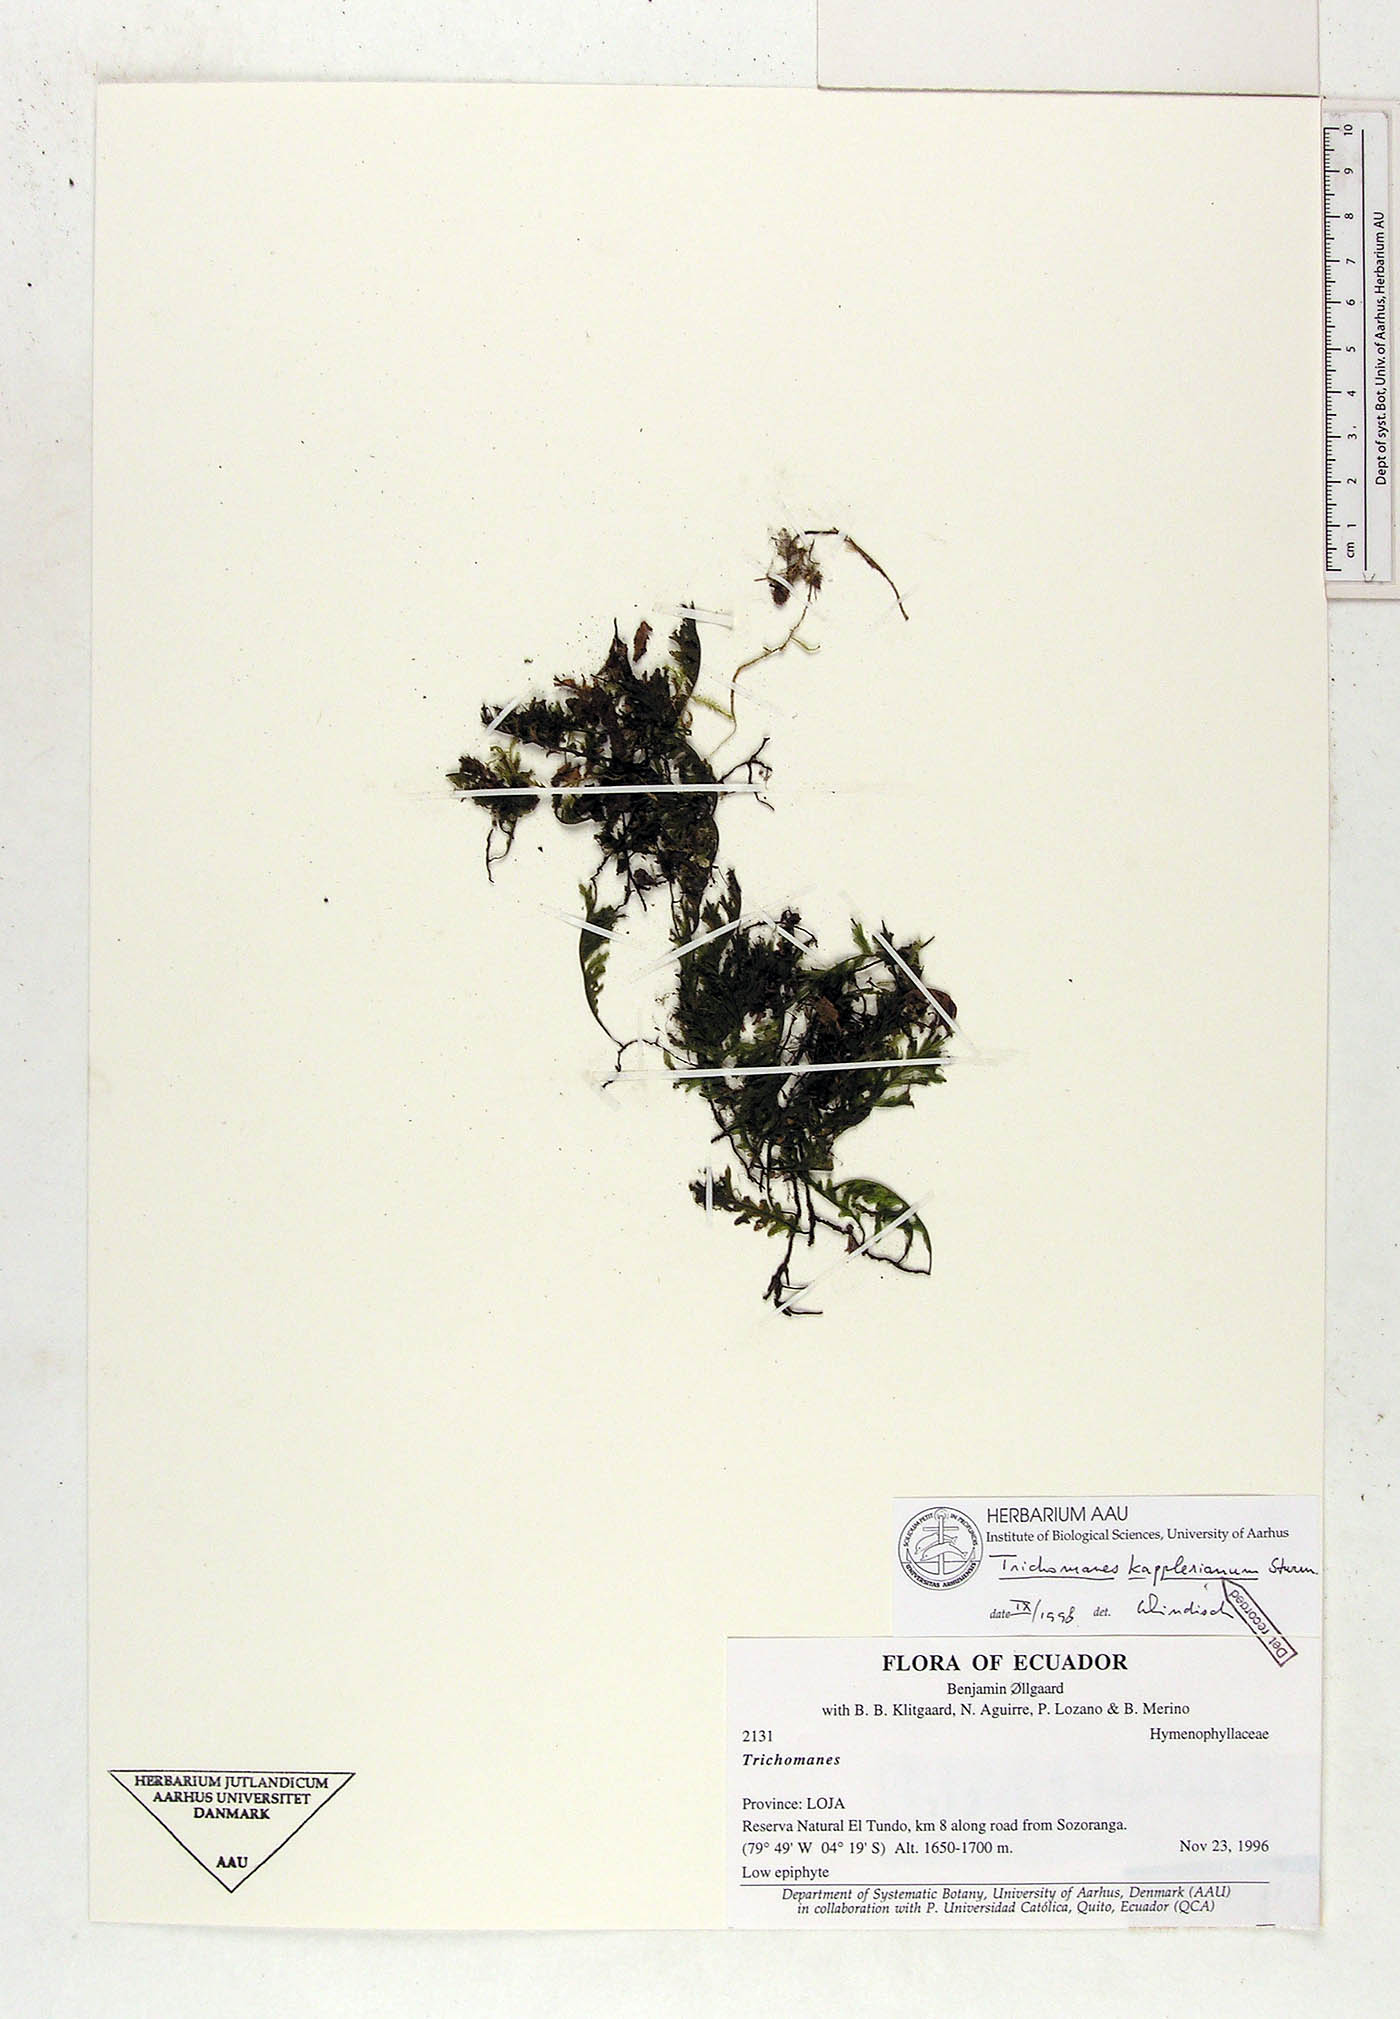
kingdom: Plantae
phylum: Tracheophyta
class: Polypodiopsida
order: Hymenophyllales
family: Hymenophyllaceae
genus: Didymoglossum
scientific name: Didymoglossum kapplerianum
